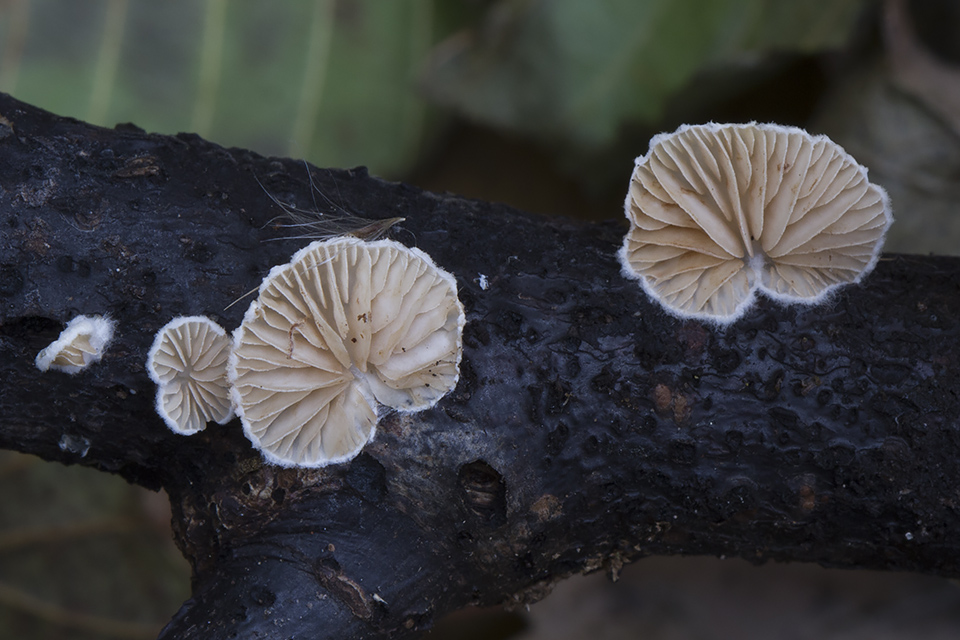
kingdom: Fungi
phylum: Basidiomycota
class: Agaricomycetes
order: Agaricales
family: Crepidotaceae
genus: Crepidotus
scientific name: Crepidotus cesatii
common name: almindelig muslingesvamp
